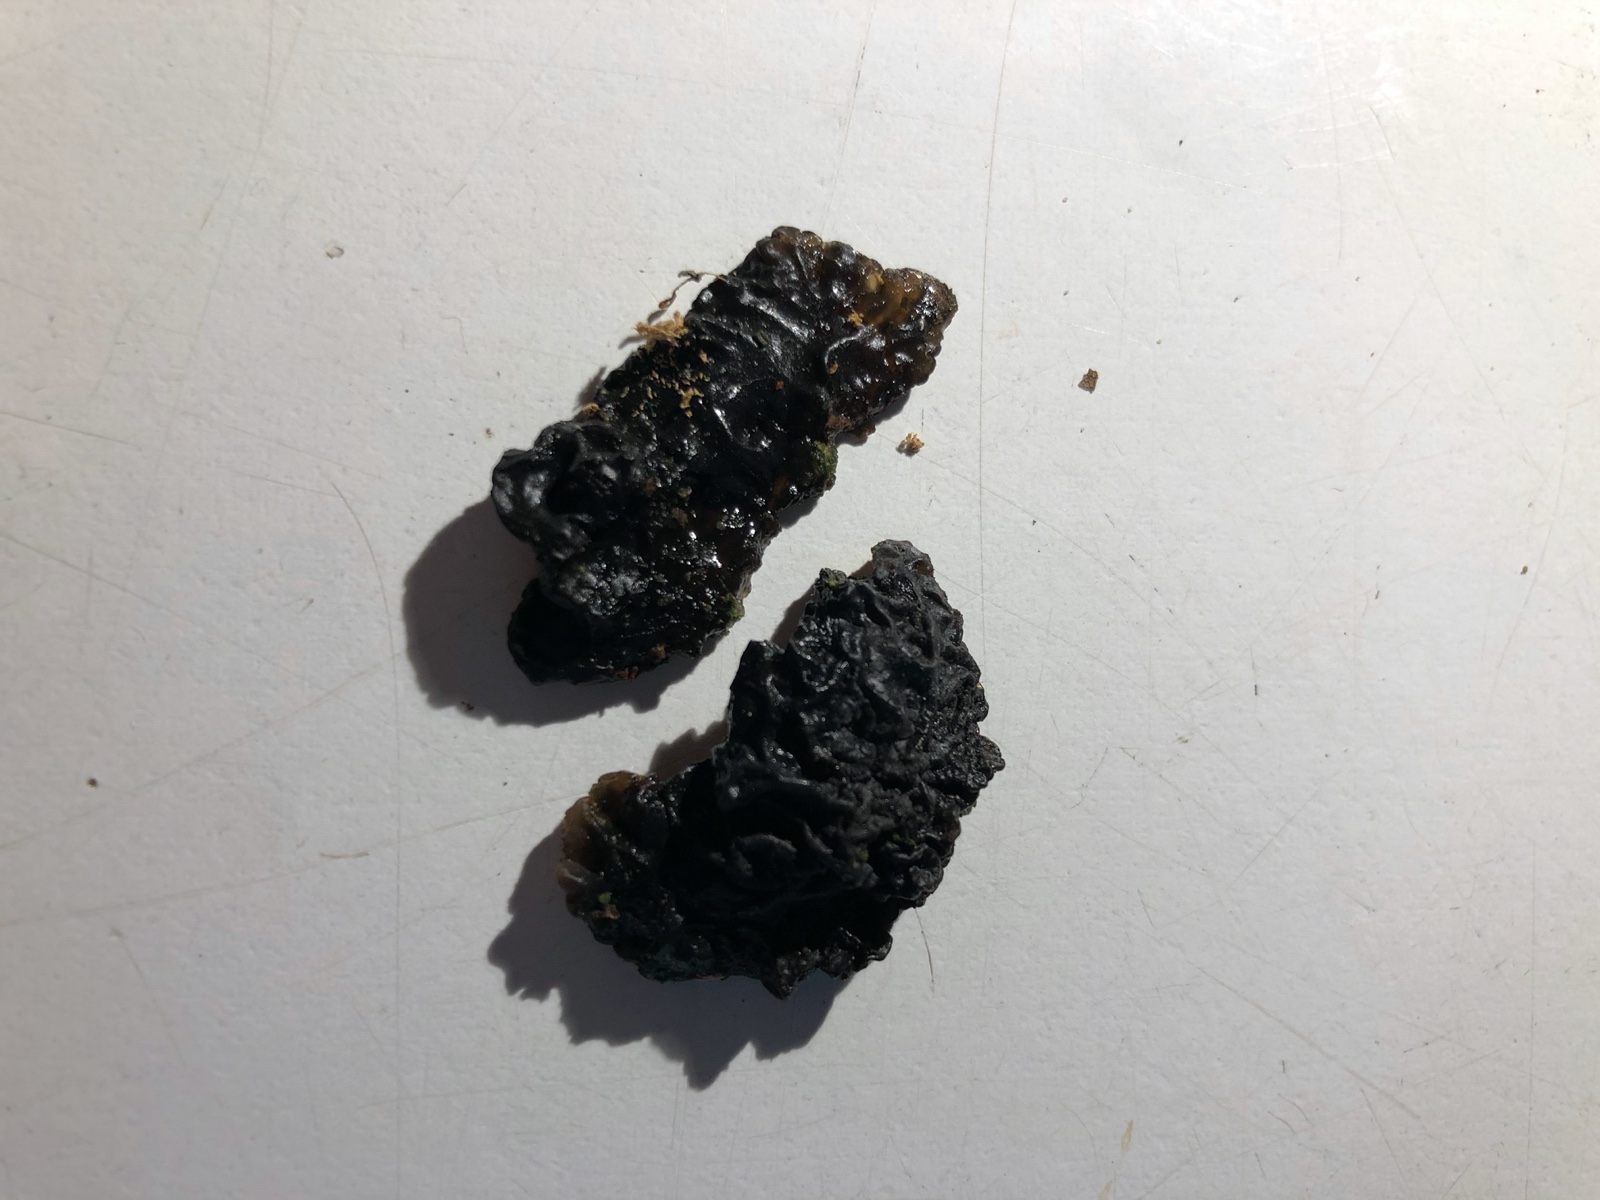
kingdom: Fungi
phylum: Basidiomycota
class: Agaricomycetes
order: Auriculariales
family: Auriculariaceae
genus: Exidia
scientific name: Exidia nigricans
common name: almindelig bævretop
